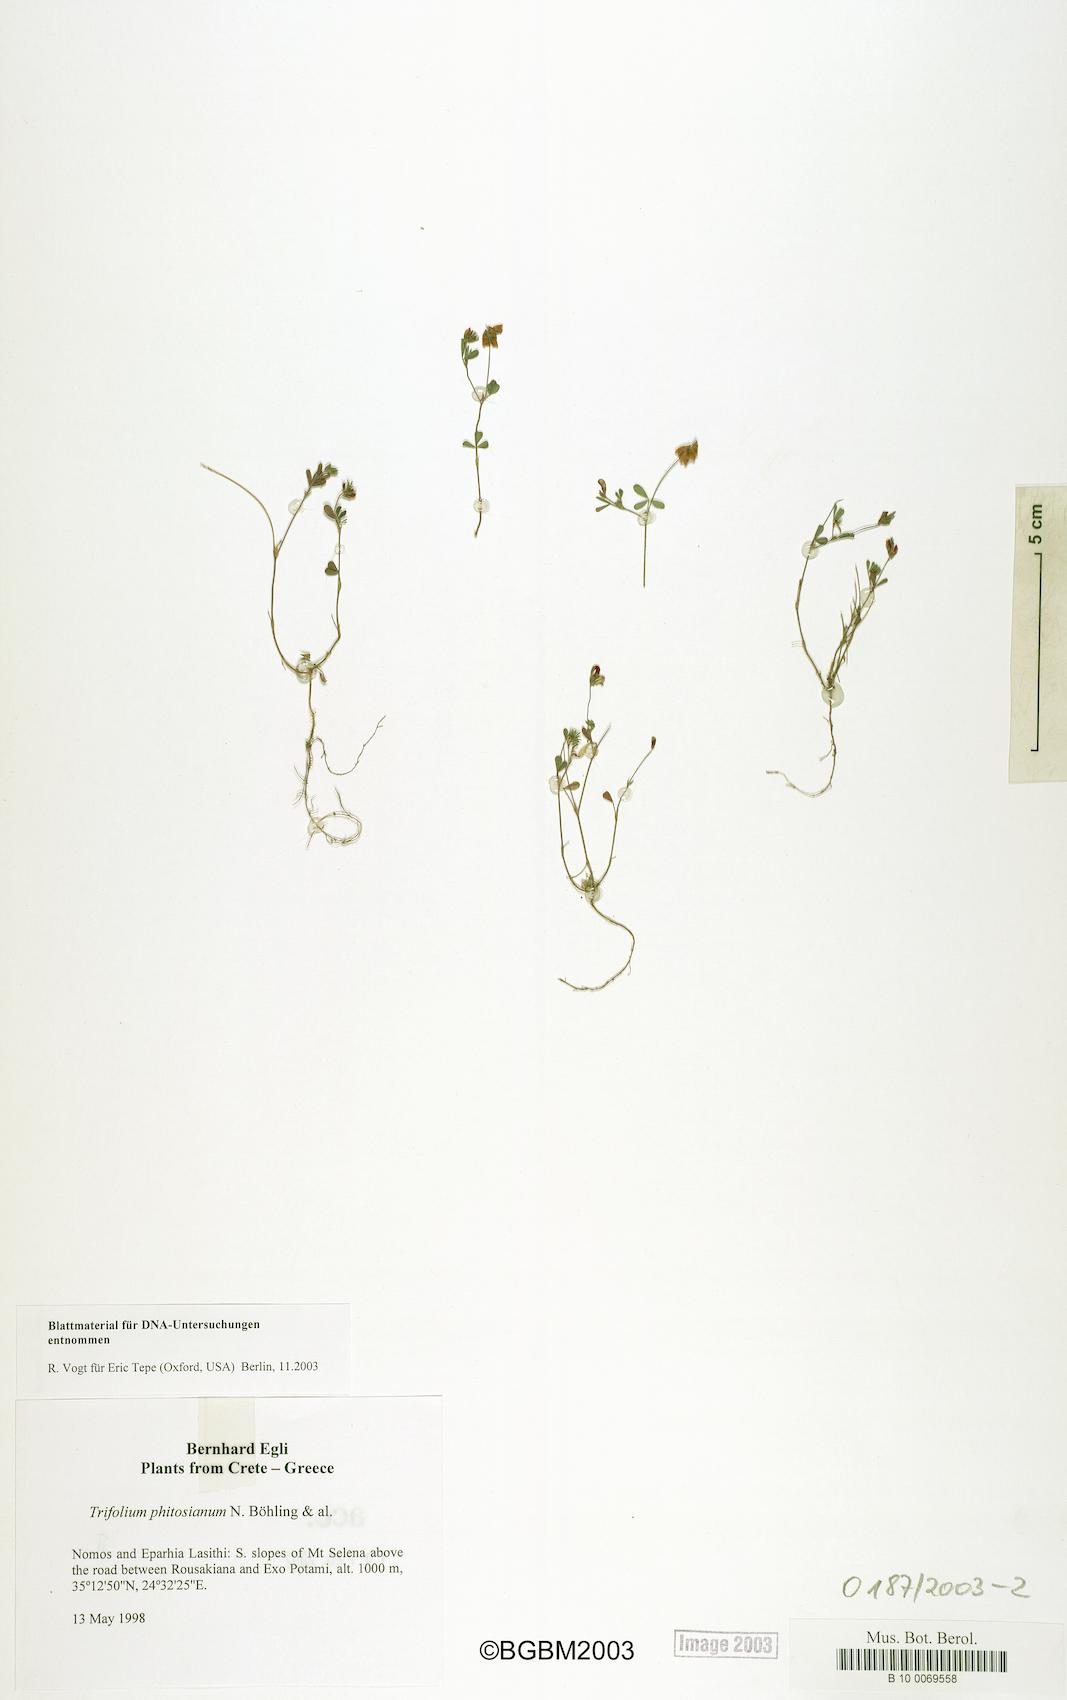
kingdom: Plantae
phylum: Tracheophyta
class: Magnoliopsida
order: Fabales
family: Fabaceae
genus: Trifolium
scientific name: Trifolium phitosianum
